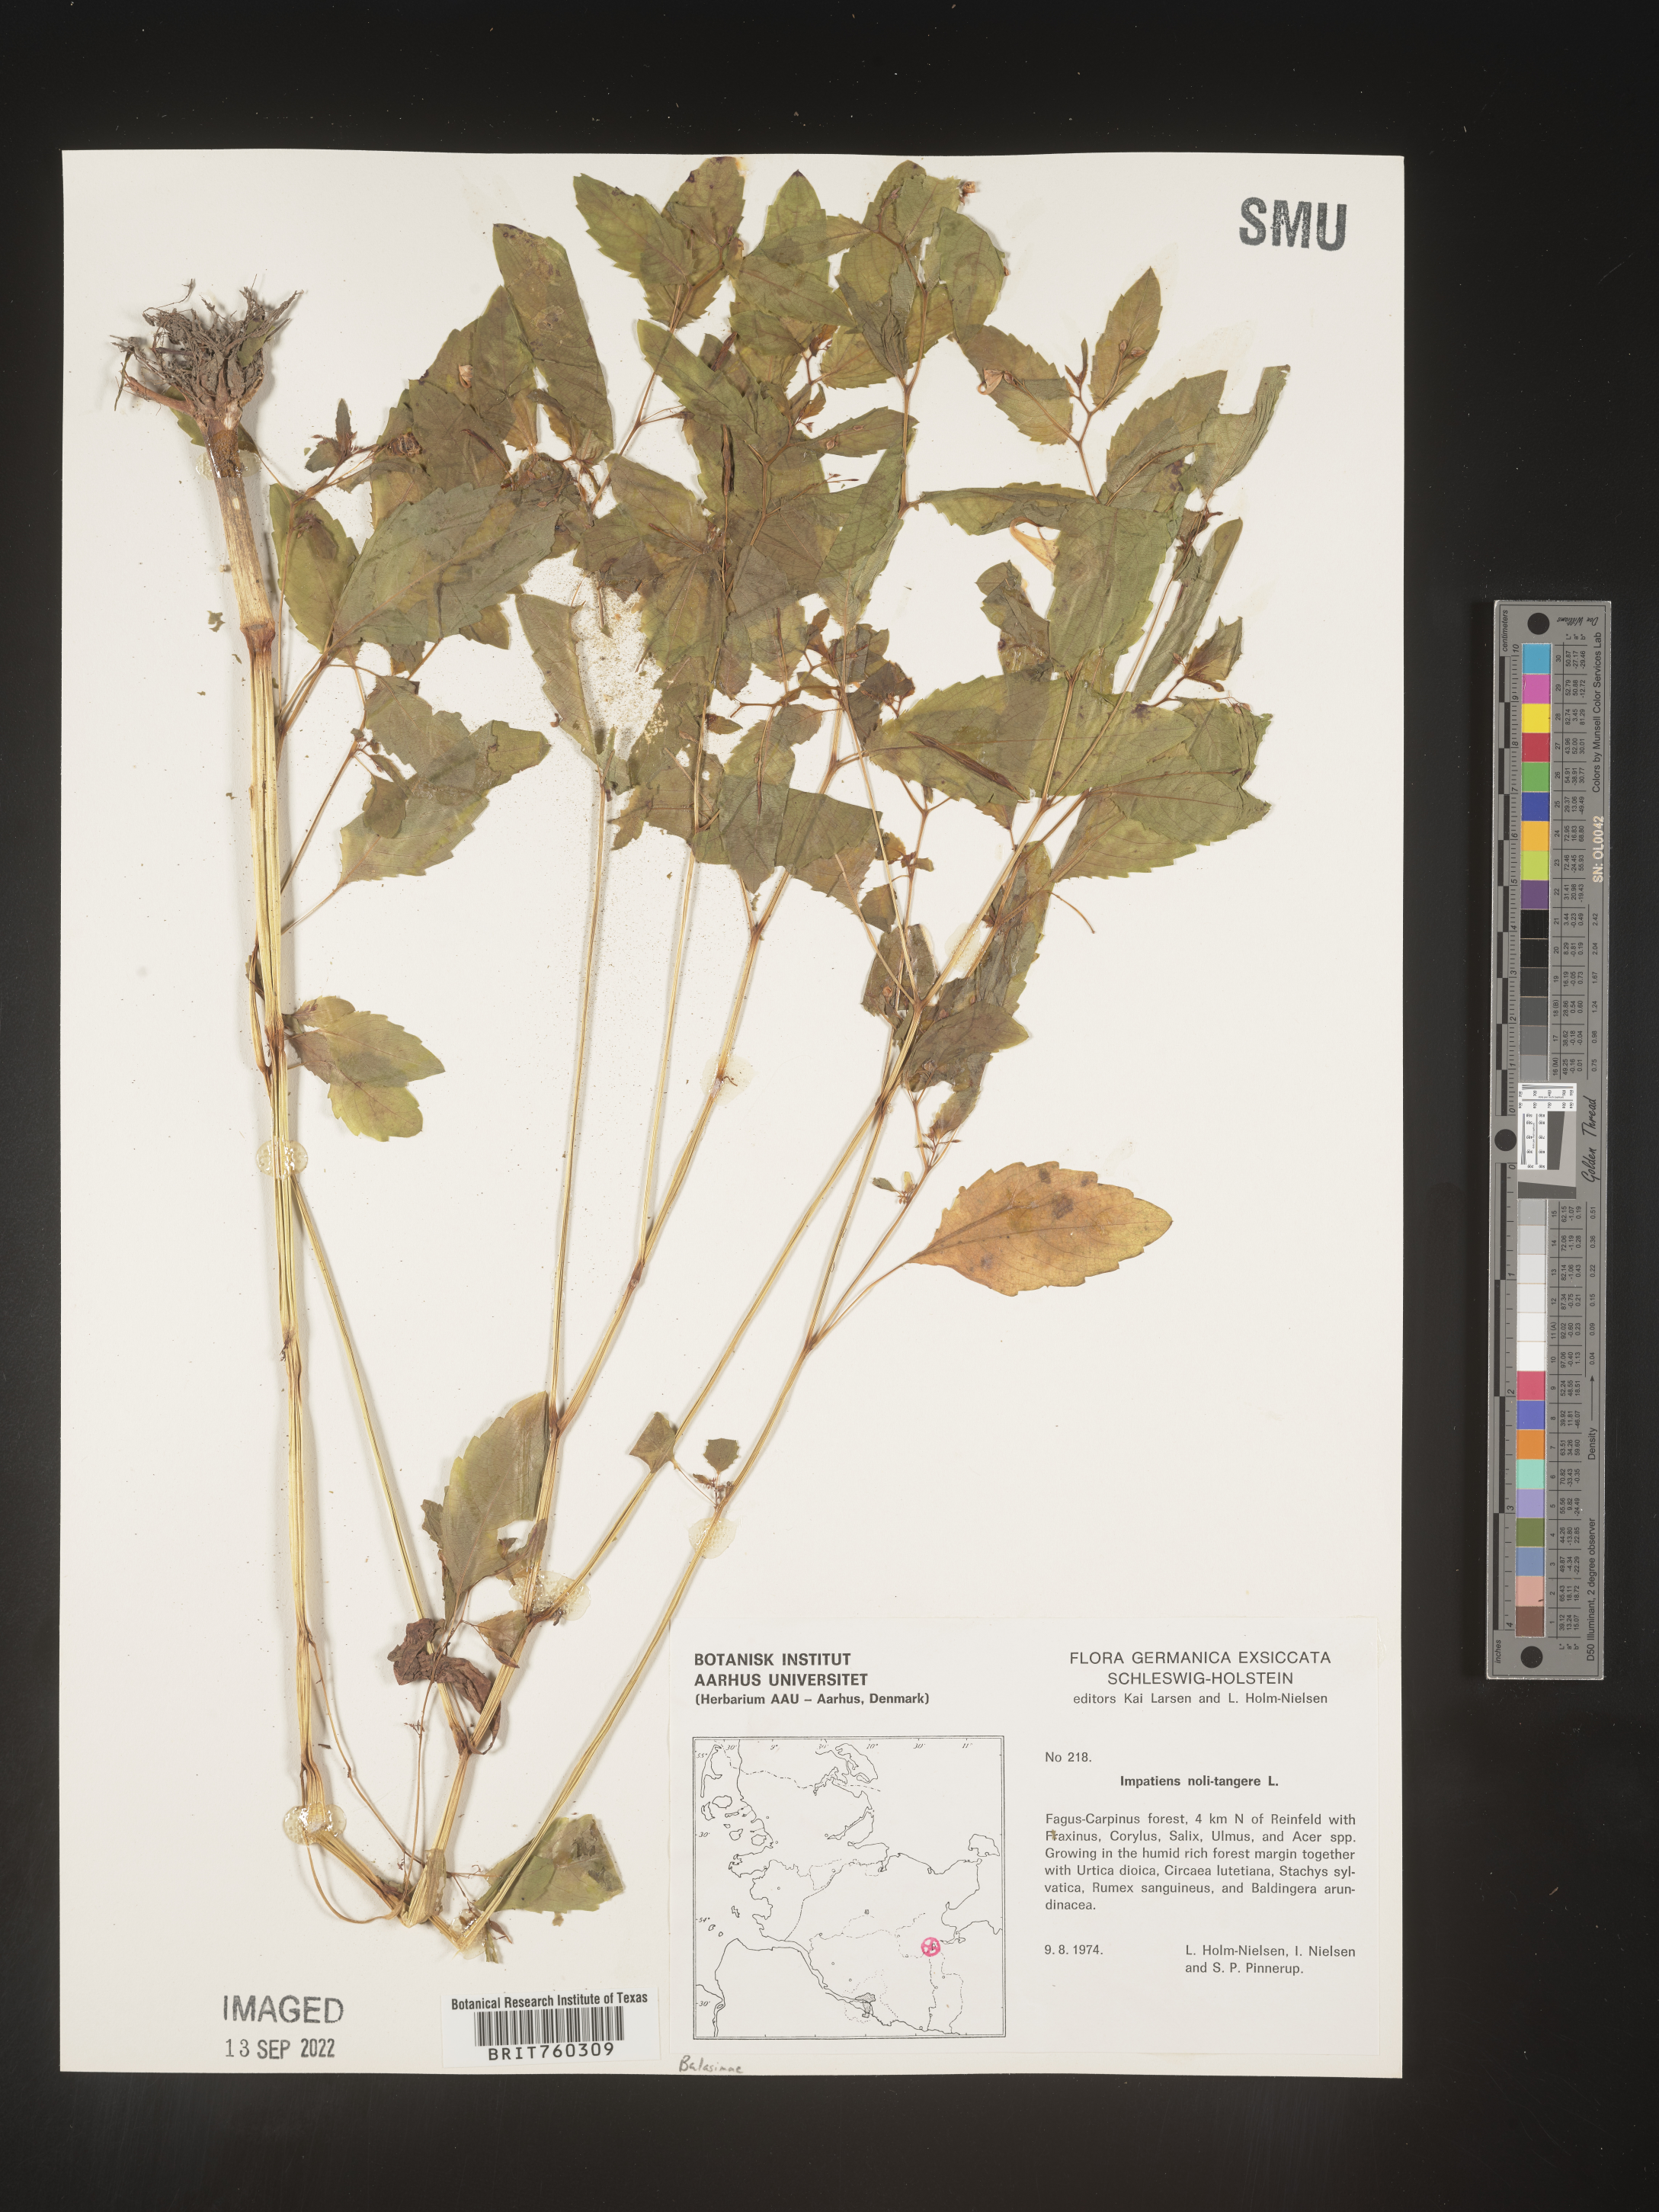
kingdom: Plantae
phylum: Tracheophyta
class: Magnoliopsida
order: Ericales
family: Balsaminaceae
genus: Impatiens
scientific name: Impatiens
